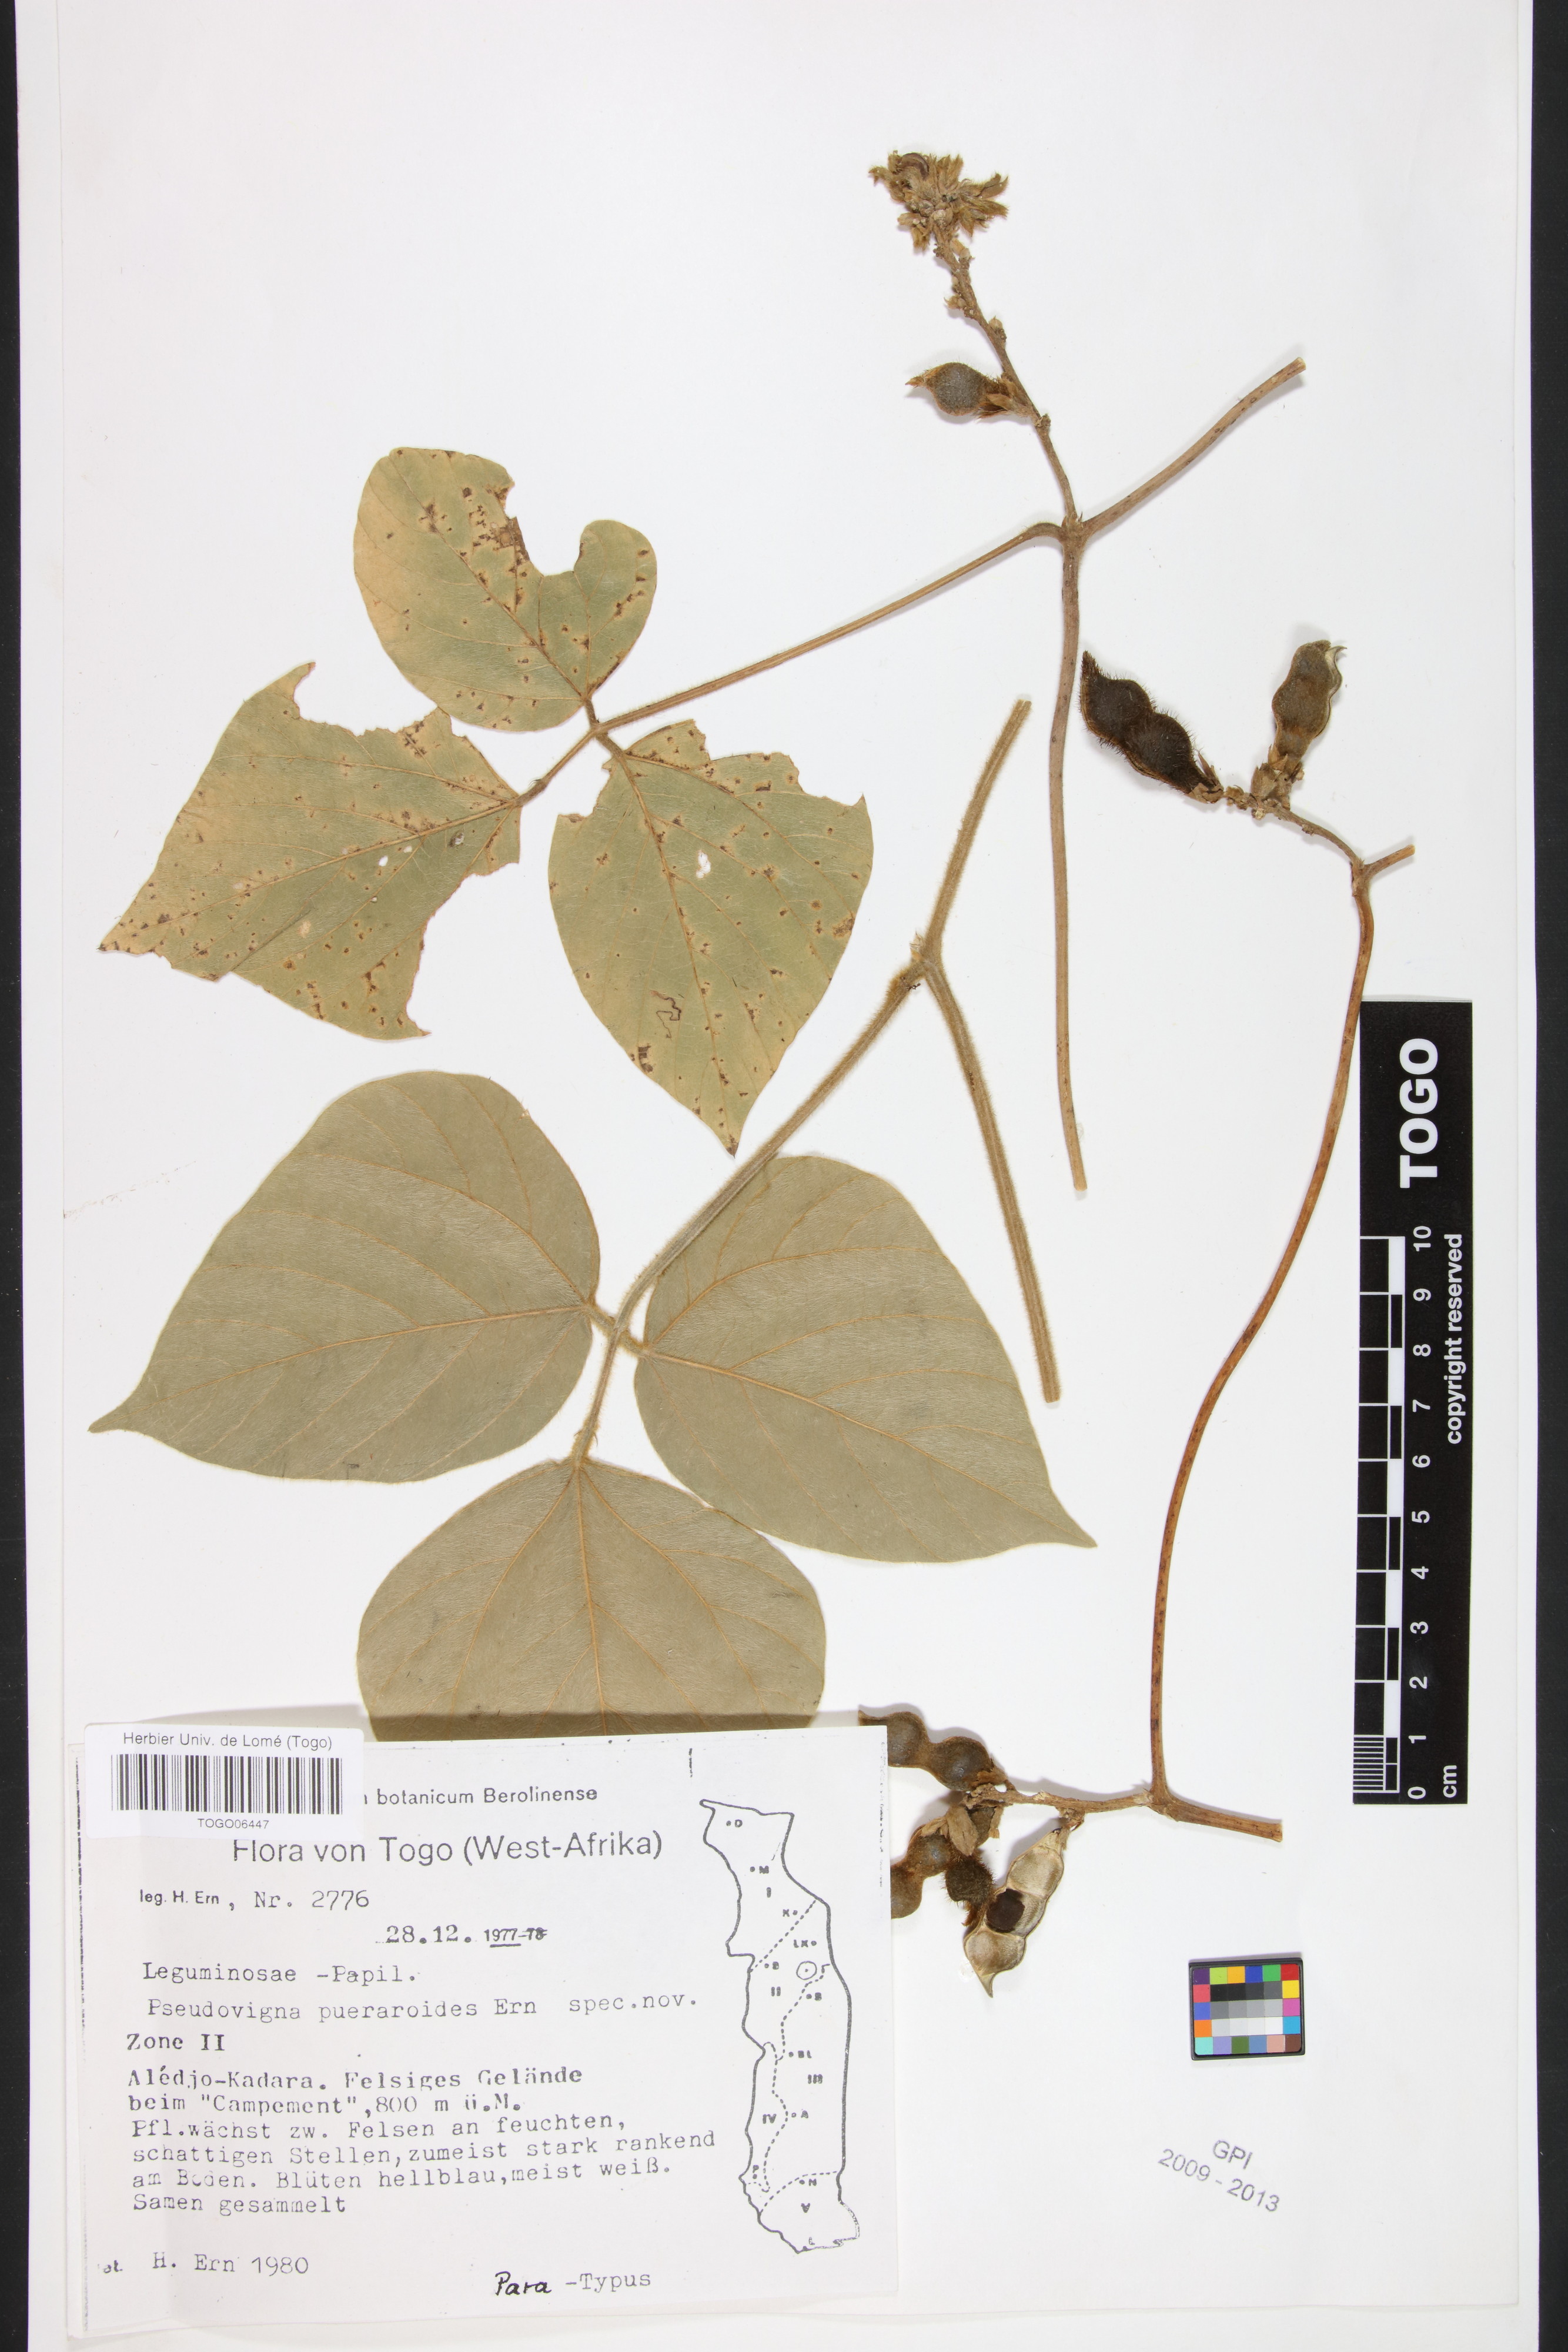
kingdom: Plantae
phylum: Tracheophyta
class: Magnoliopsida
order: Fabales
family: Fabaceae
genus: Pseudovigna
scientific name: Pseudovigna puerarioides
